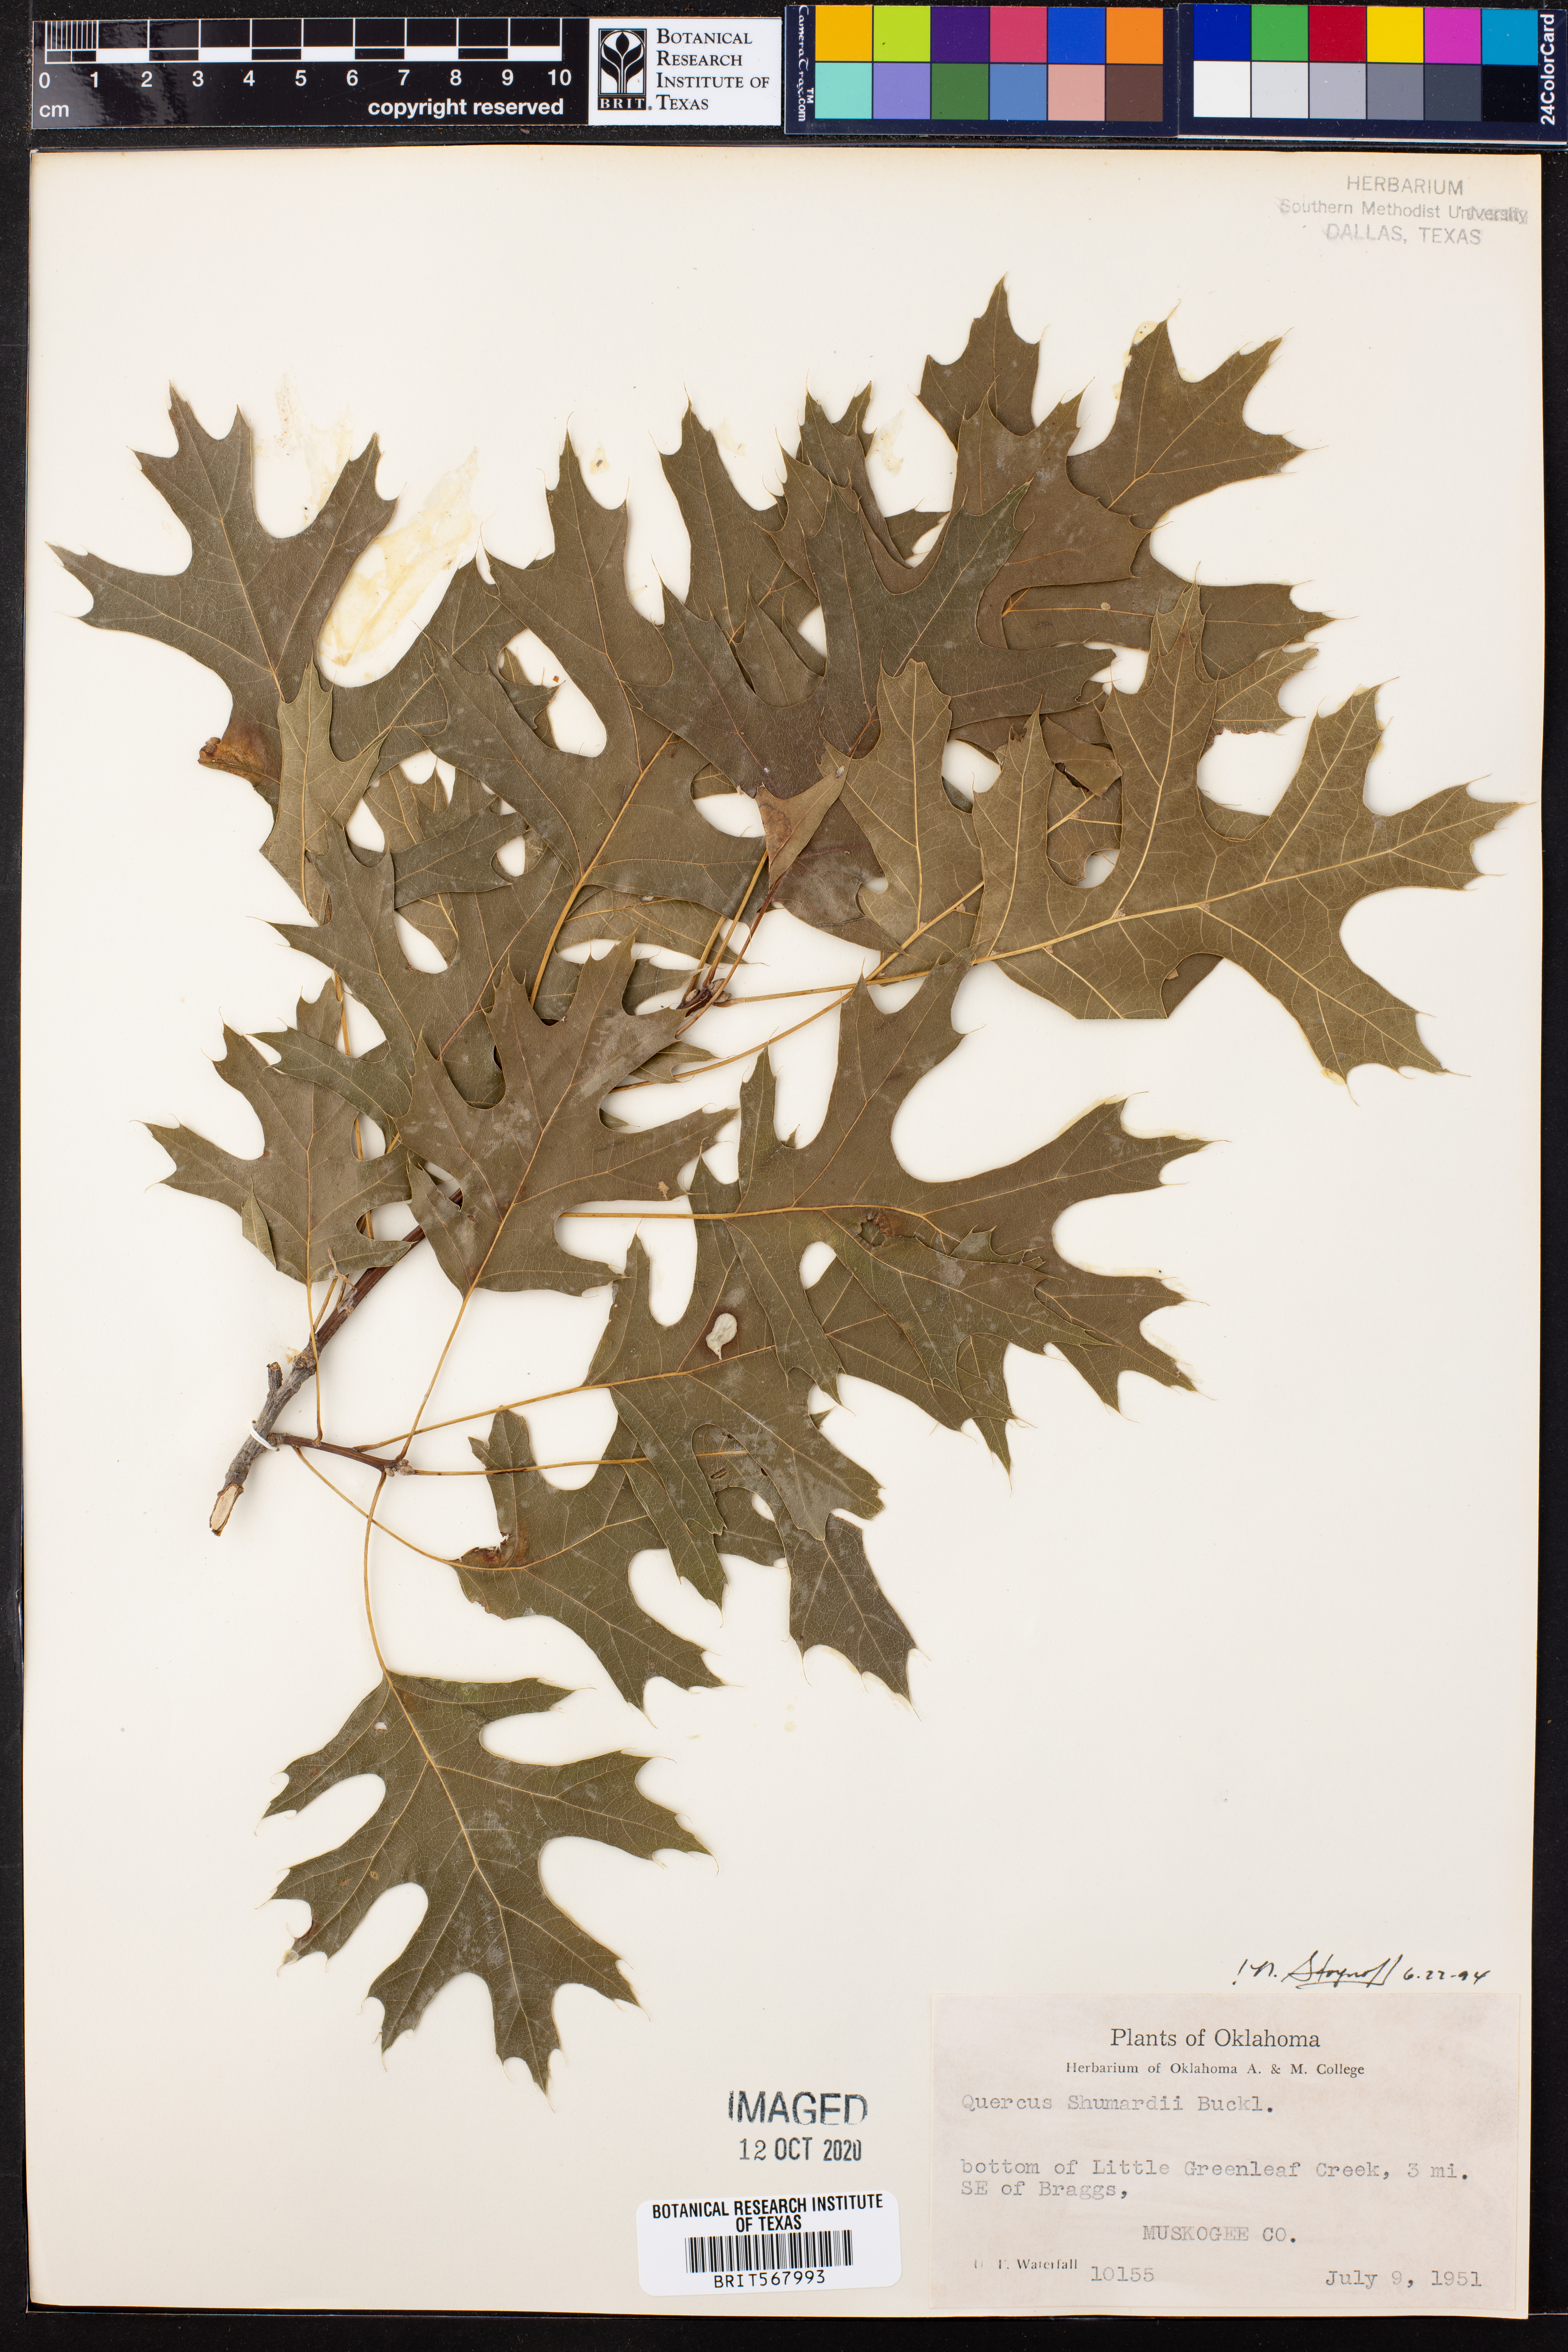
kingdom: Plantae
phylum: Tracheophyta
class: Magnoliopsida
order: Fagales
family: Fagaceae
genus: Quercus
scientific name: Quercus shumardii
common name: Shumard oak
